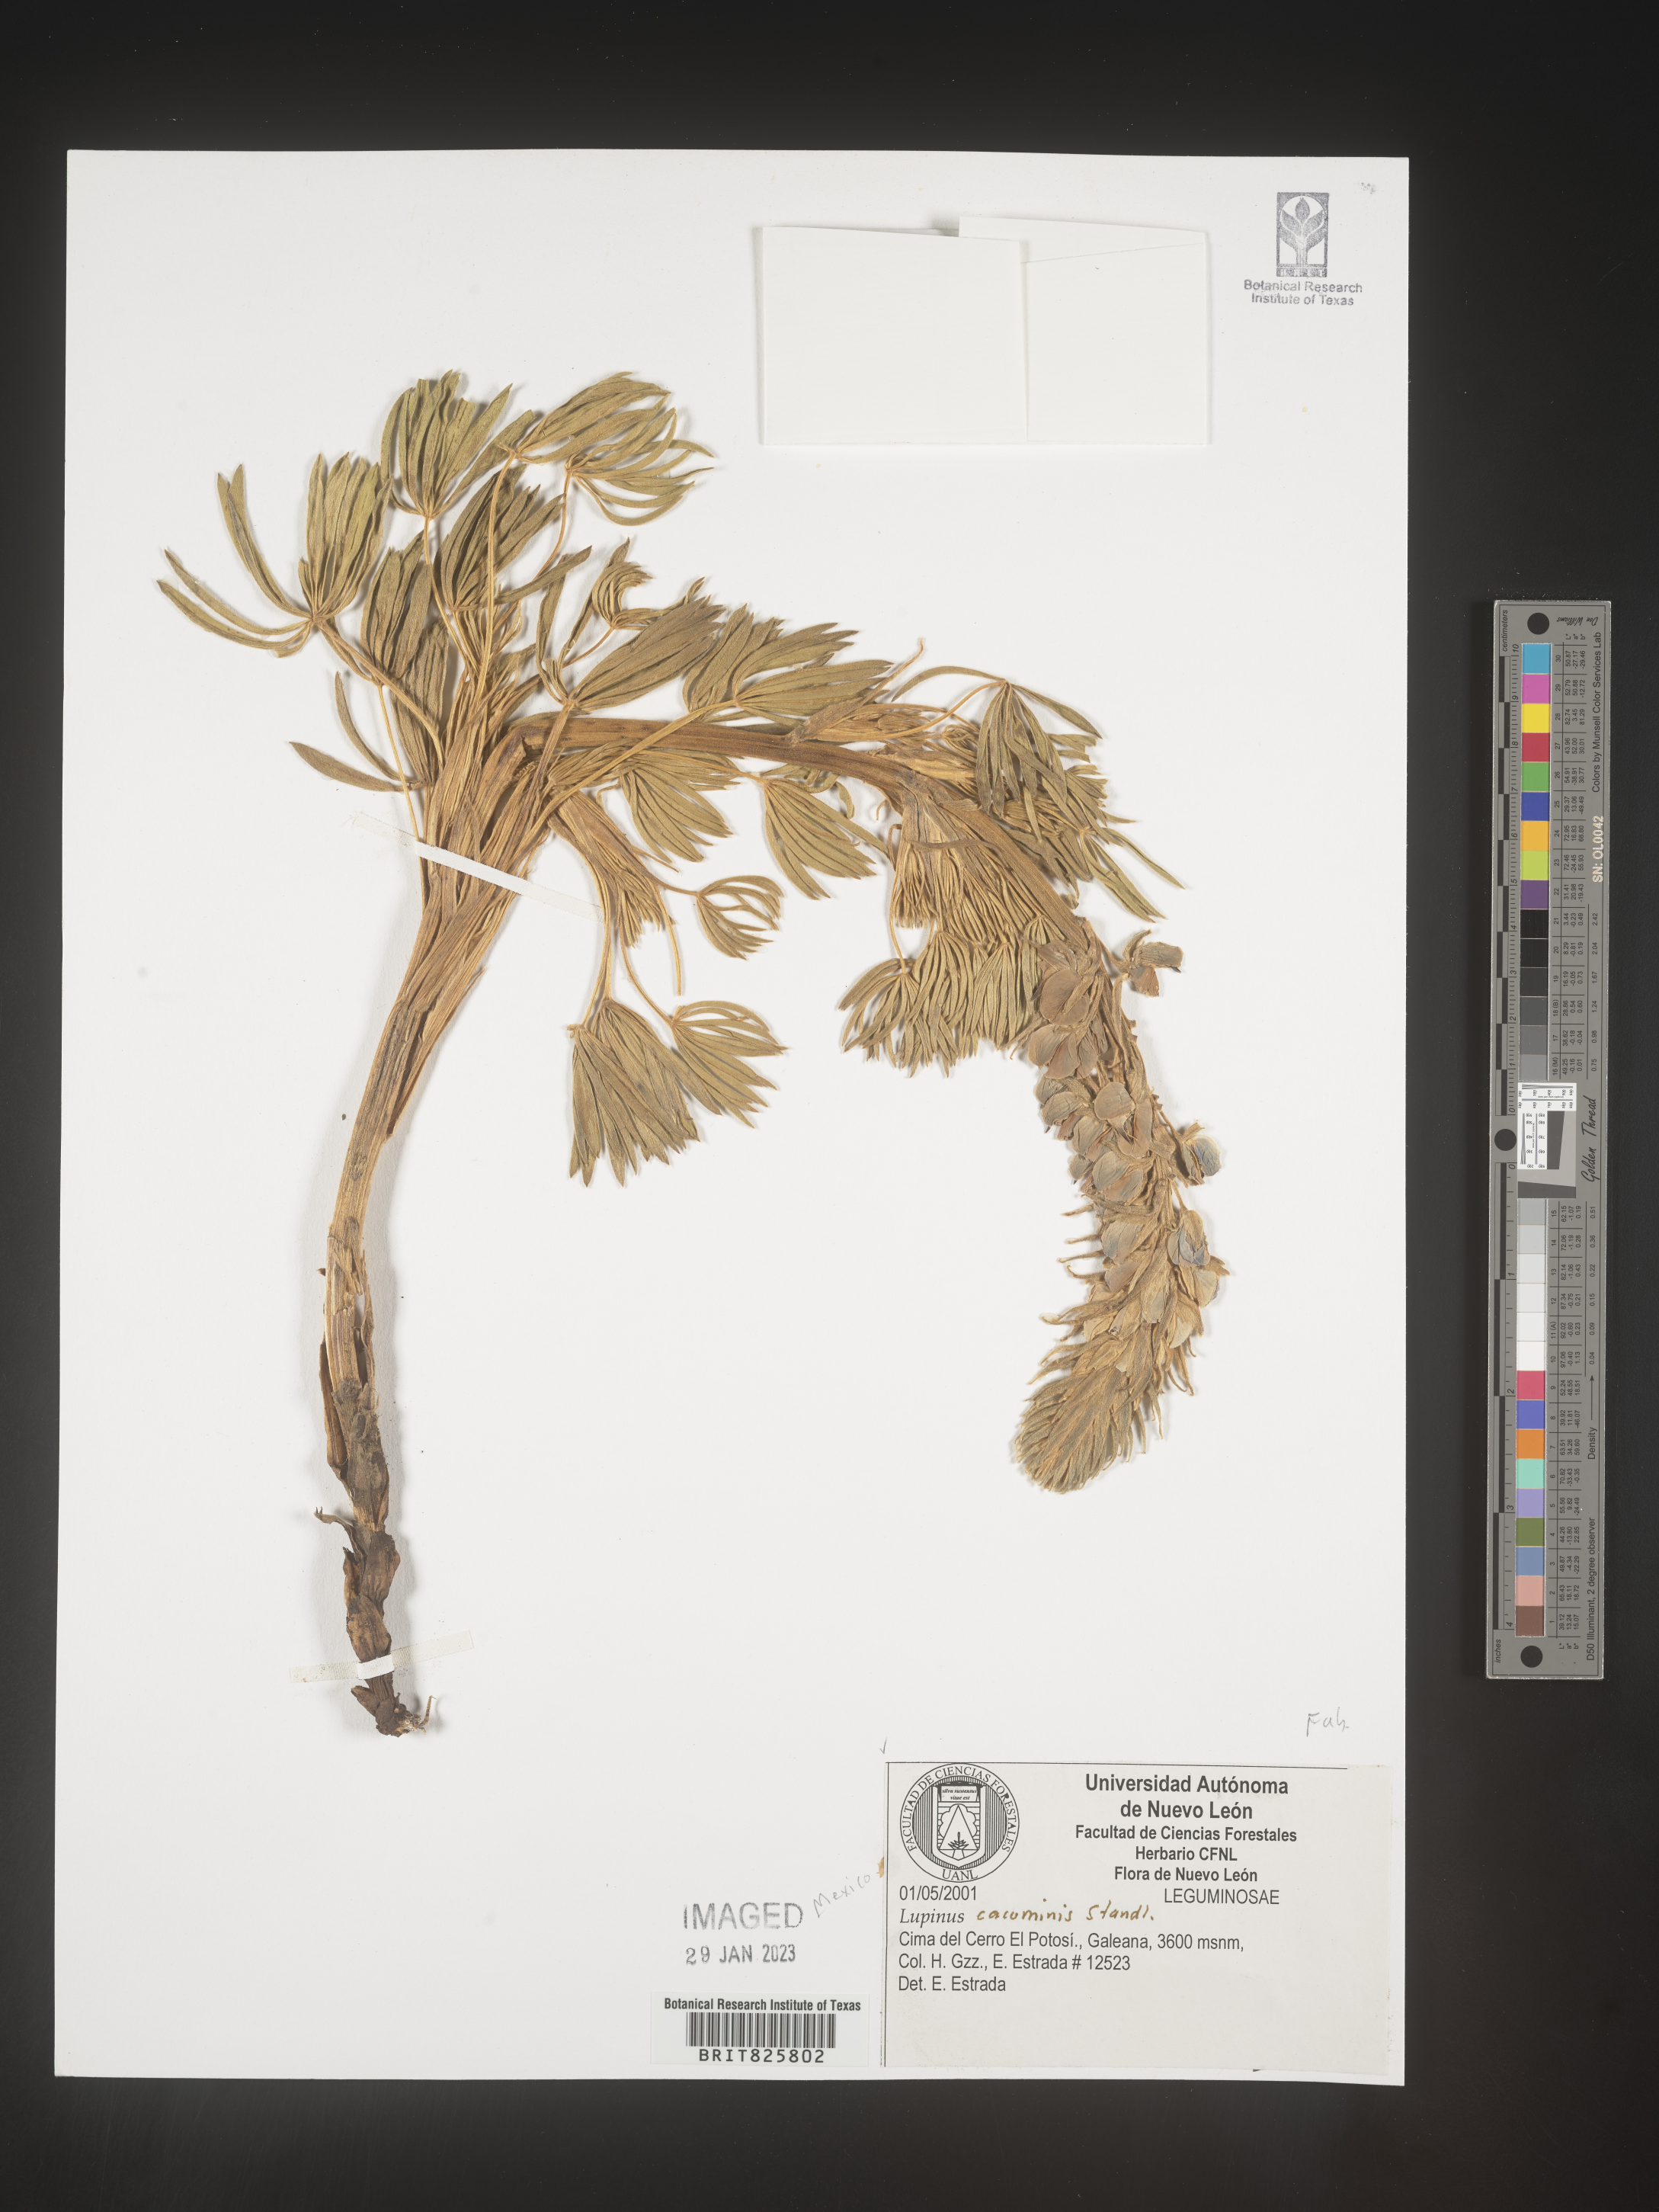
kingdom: Plantae
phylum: Tracheophyta
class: Magnoliopsida
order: Fabales
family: Fabaceae
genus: Lupinus
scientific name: Lupinus
